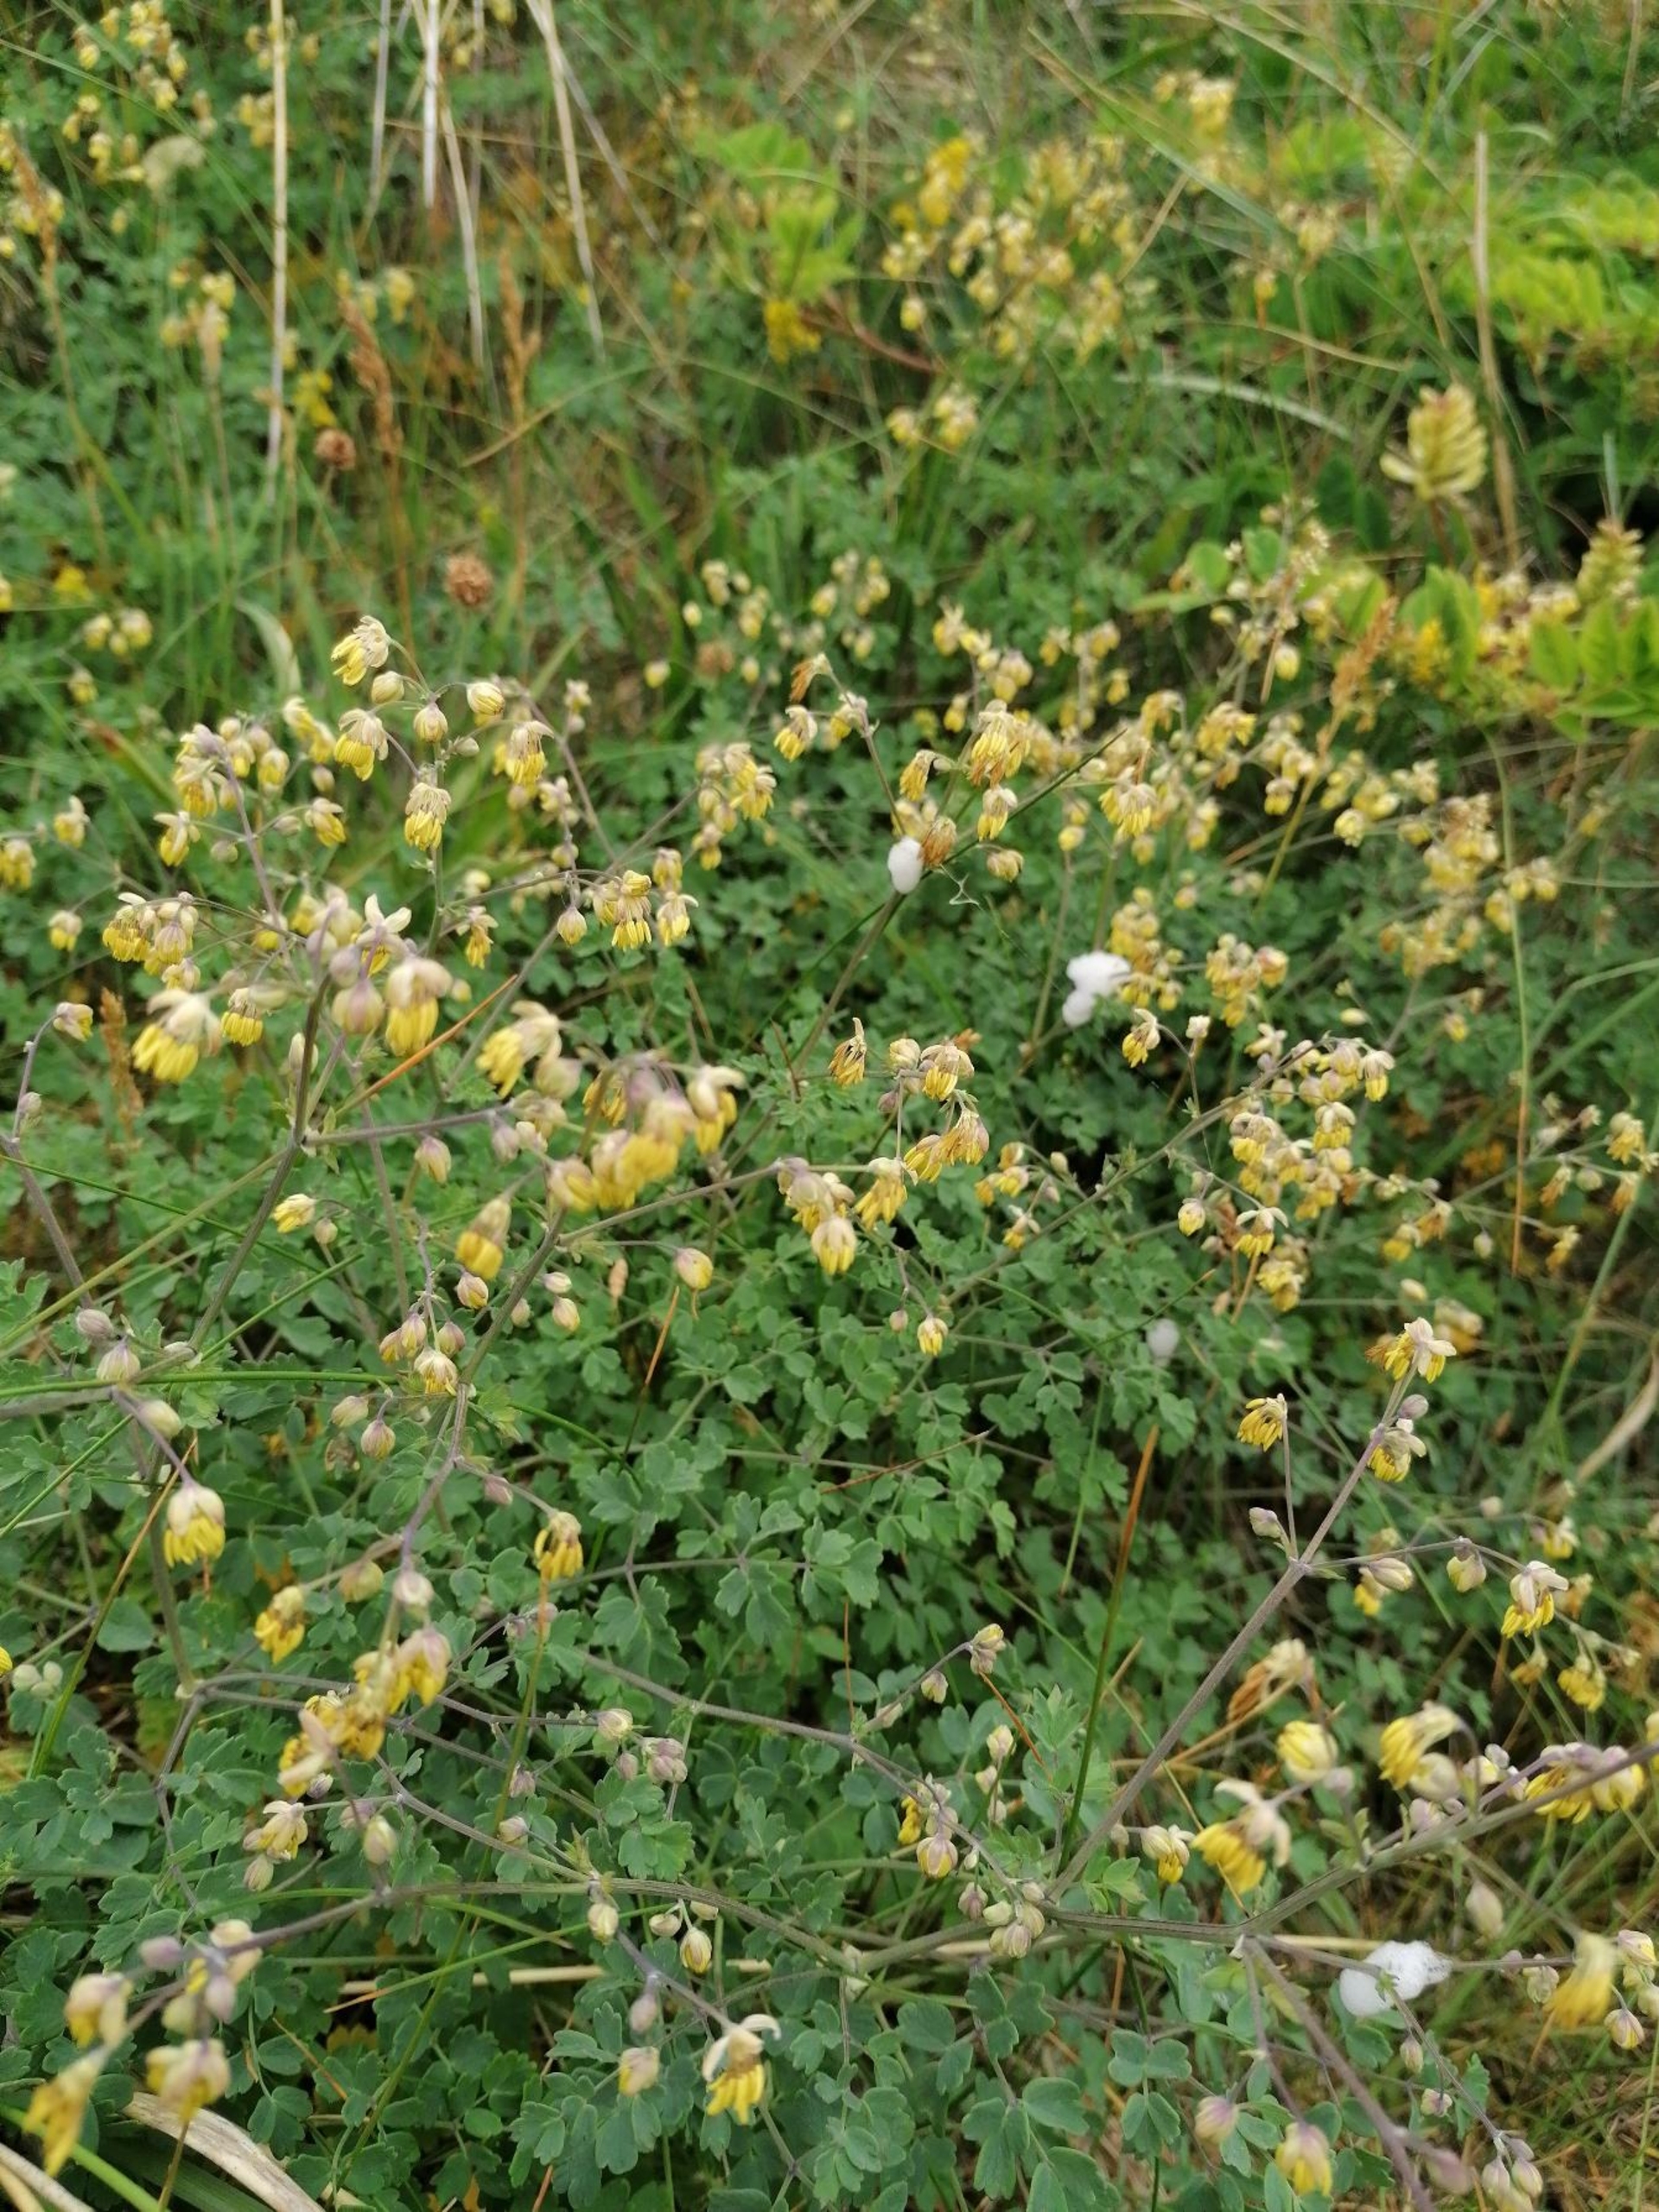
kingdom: Plantae
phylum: Tracheophyta
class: Magnoliopsida
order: Ranunculales
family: Ranunculaceae
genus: Thalictrum
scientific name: Thalictrum minus
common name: Liden frøstjerne
